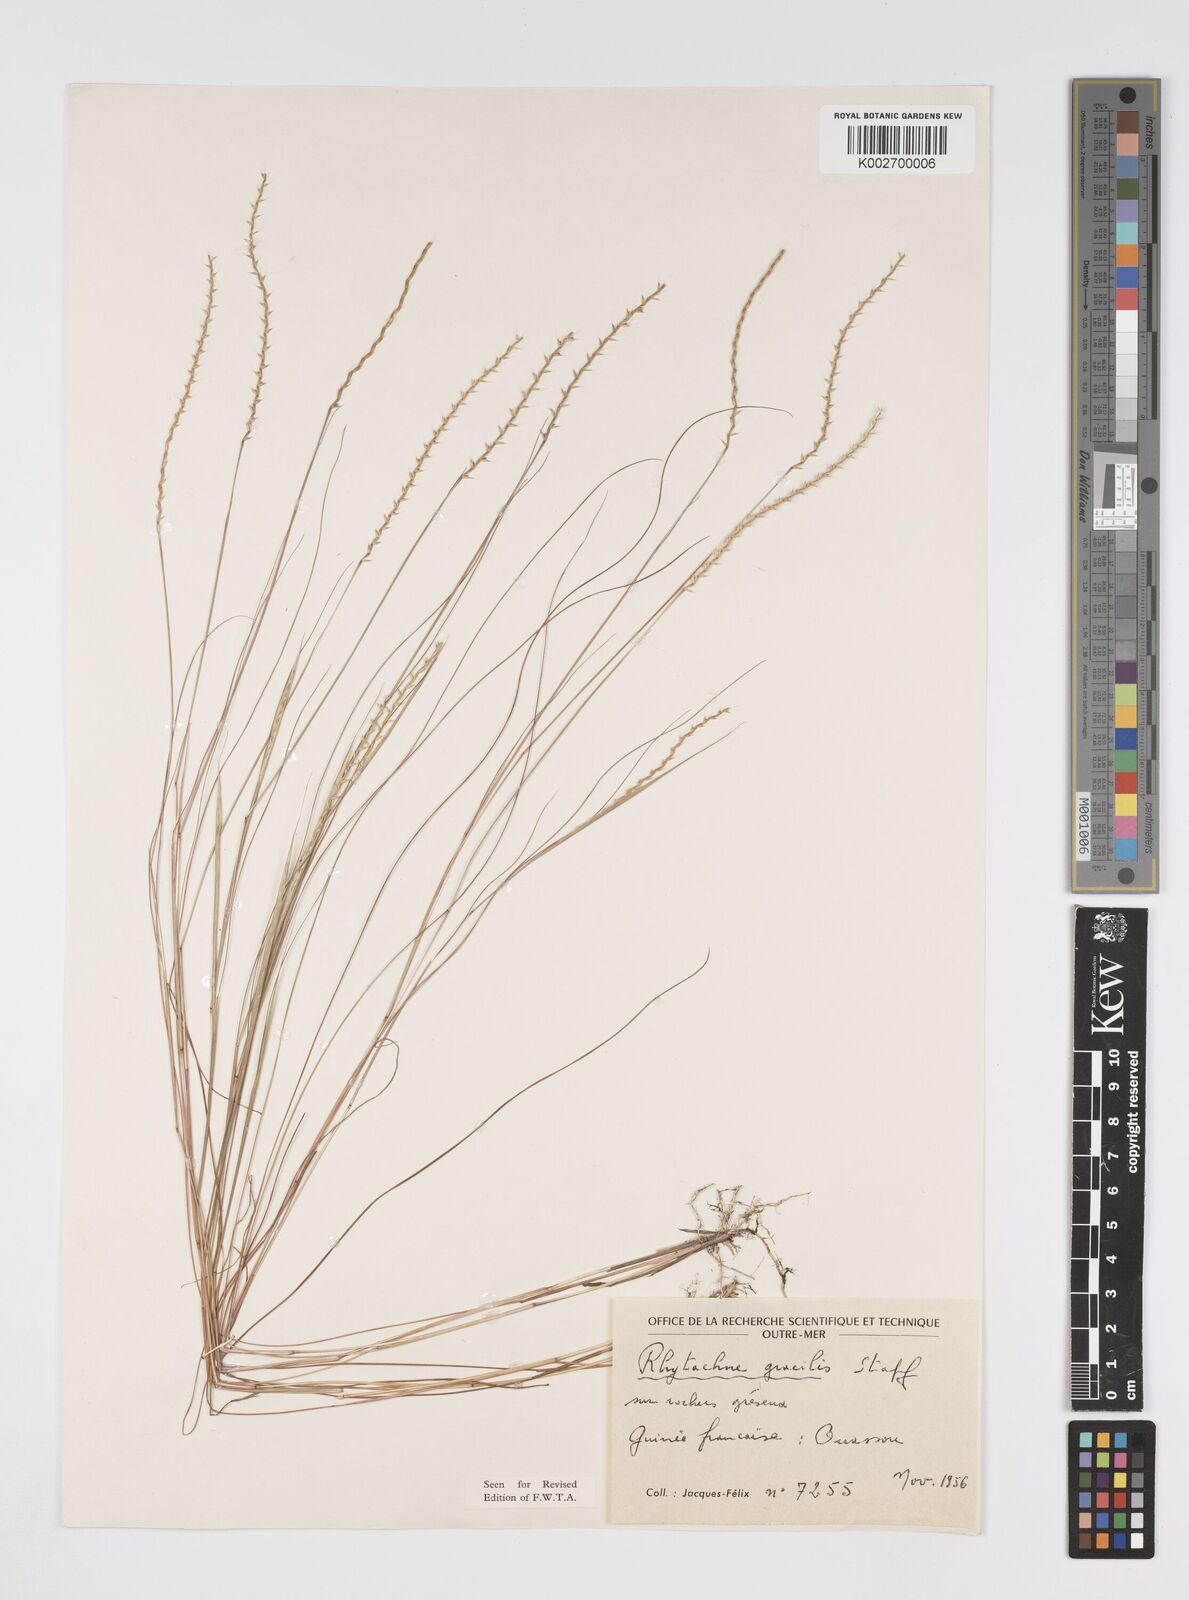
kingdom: Plantae
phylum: Tracheophyta
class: Liliopsida
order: Poales
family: Poaceae
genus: Rhytachne
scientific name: Rhytachne gracilis
